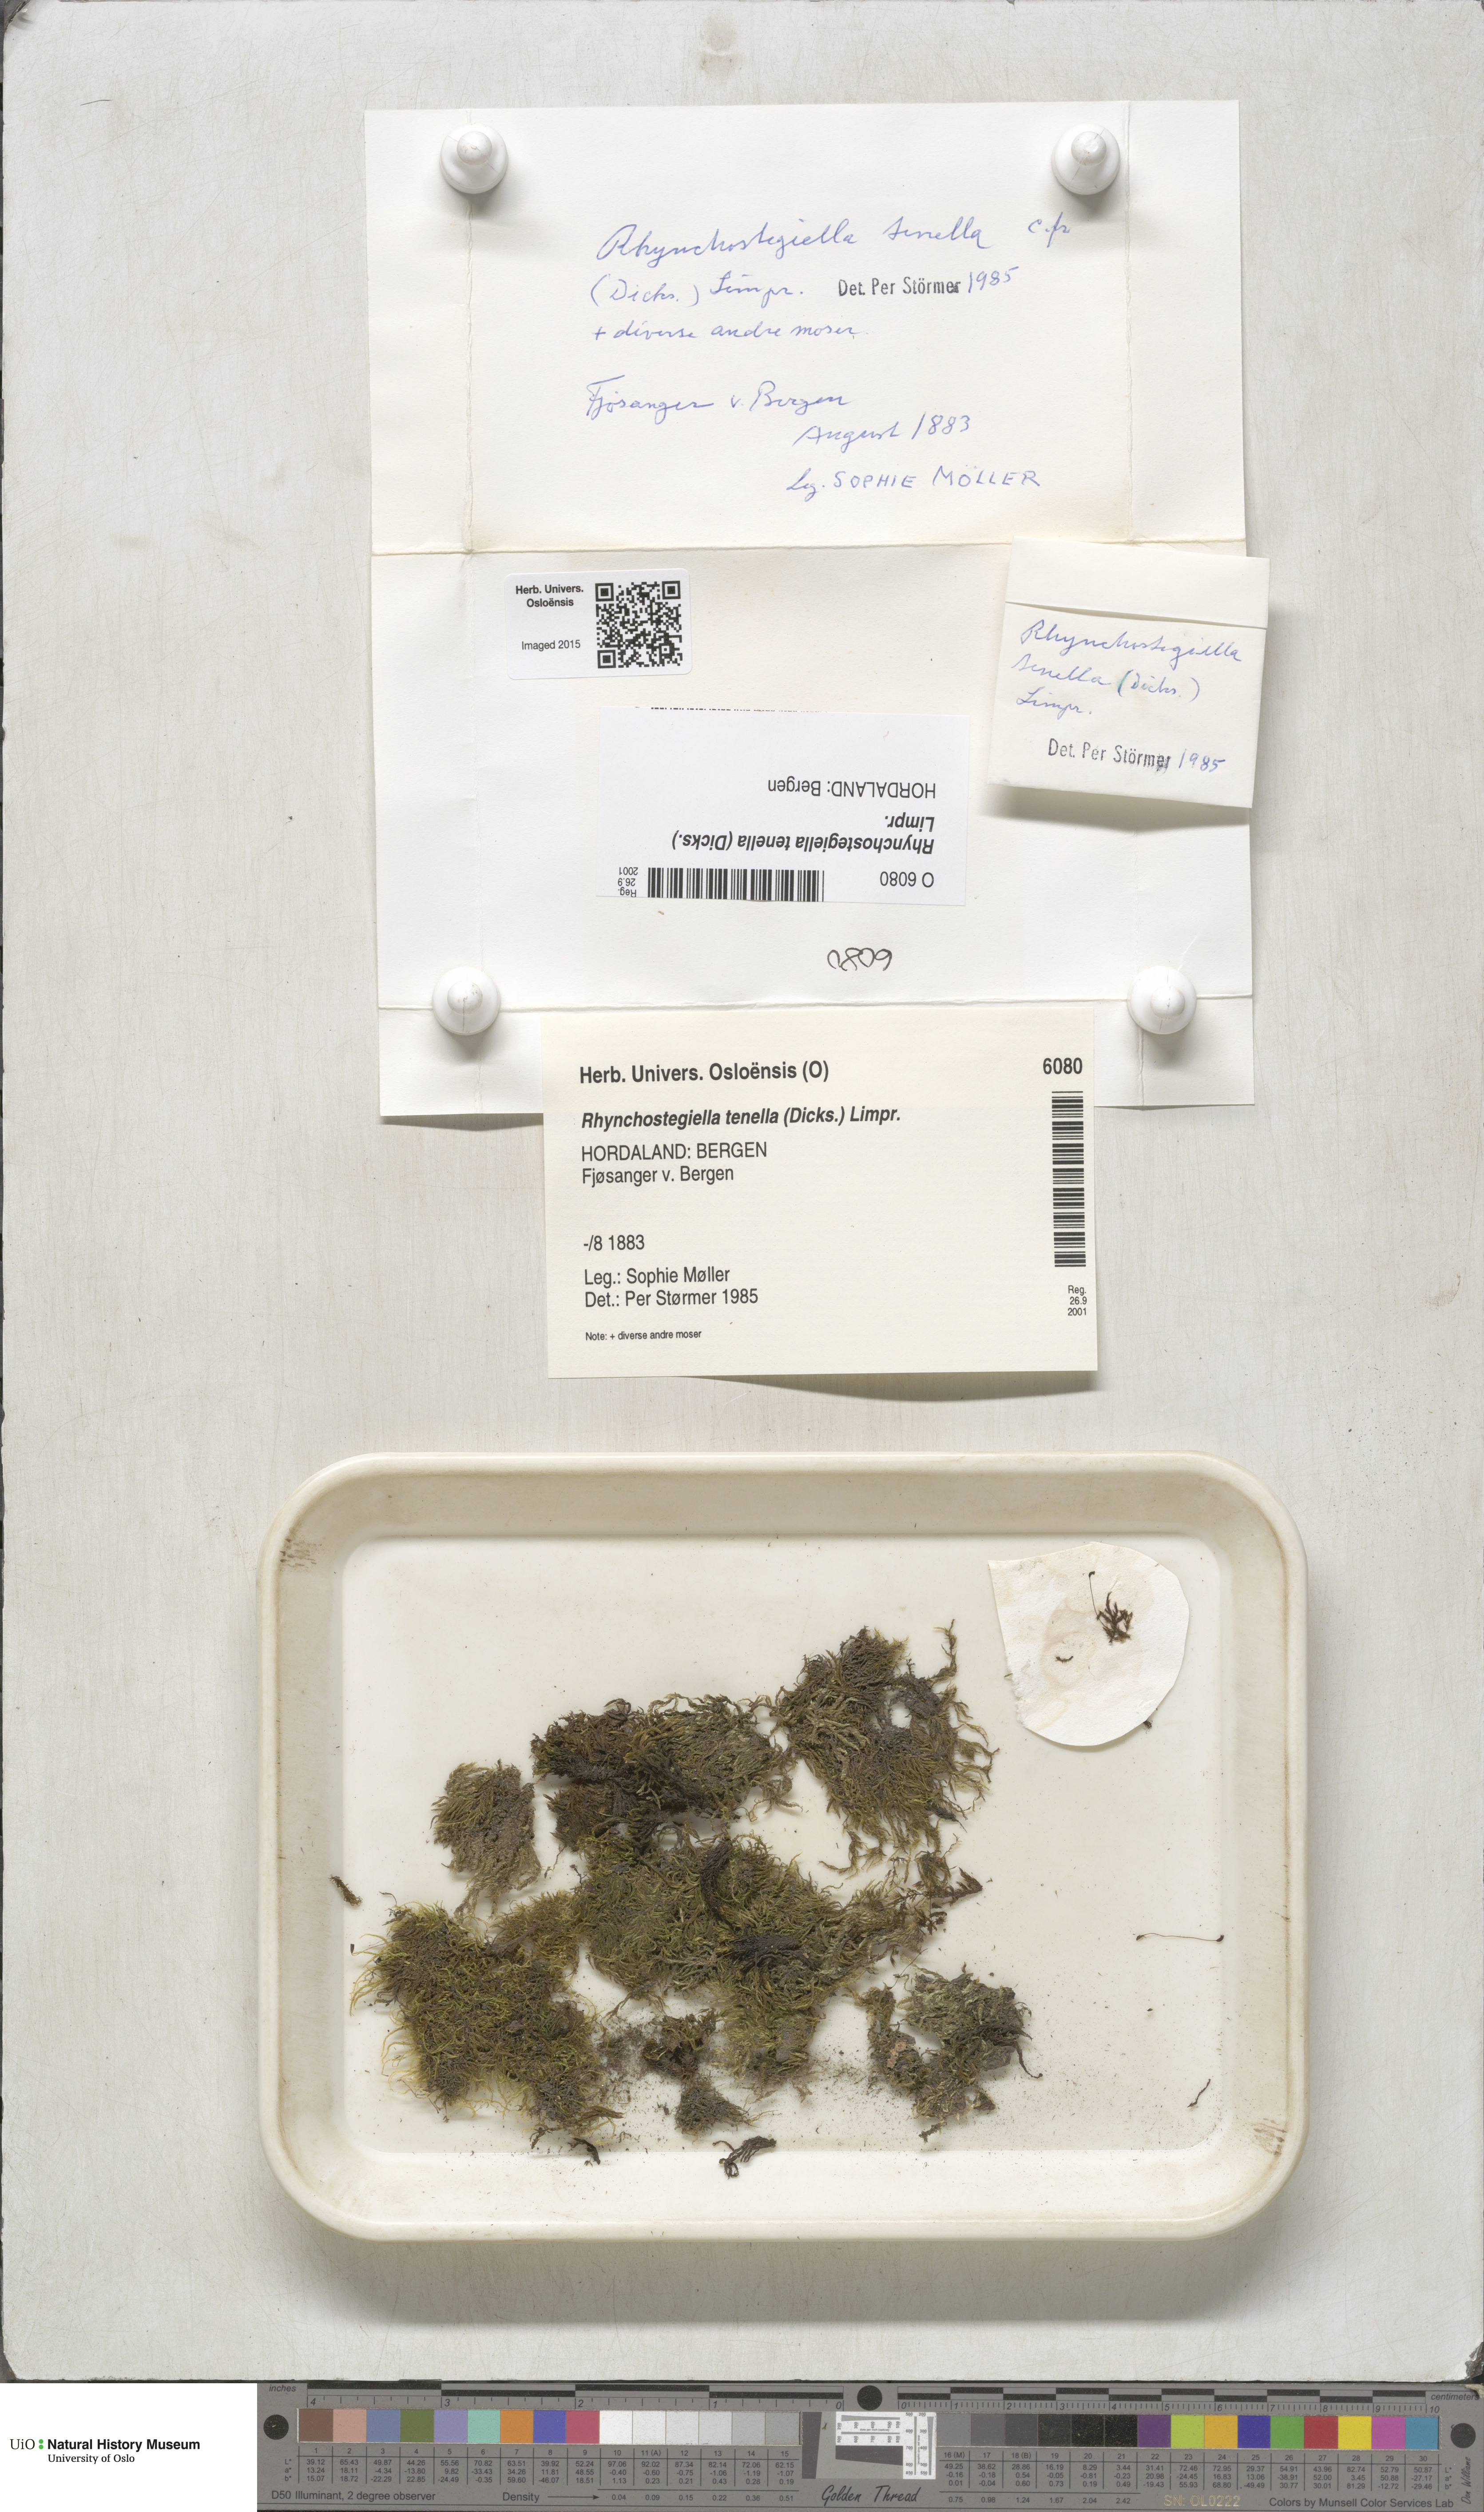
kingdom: Plantae
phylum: Bryophyta
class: Bryopsida
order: Hypnales
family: Brachytheciaceae
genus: Rhynchostegiella
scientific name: Rhynchostegiella tenella
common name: Tender feather-moss
